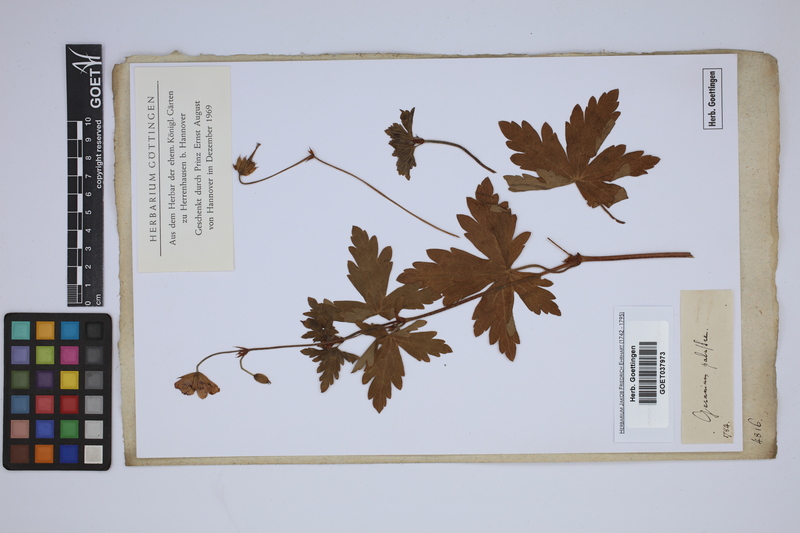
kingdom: Plantae
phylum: Tracheophyta
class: Magnoliopsida
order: Geraniales
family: Geraniaceae
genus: Geranium
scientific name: Geranium palustre
